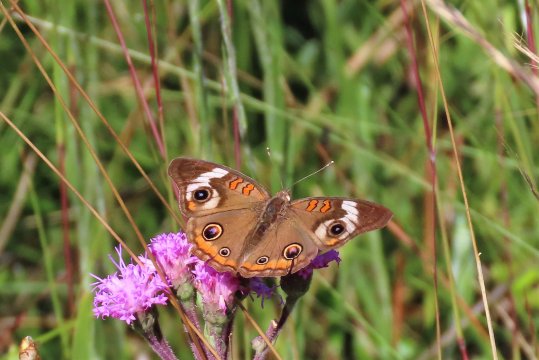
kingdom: Animalia
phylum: Arthropoda
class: Insecta
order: Lepidoptera
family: Nymphalidae
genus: Junonia
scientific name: Junonia coenia
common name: Common Buckeye
